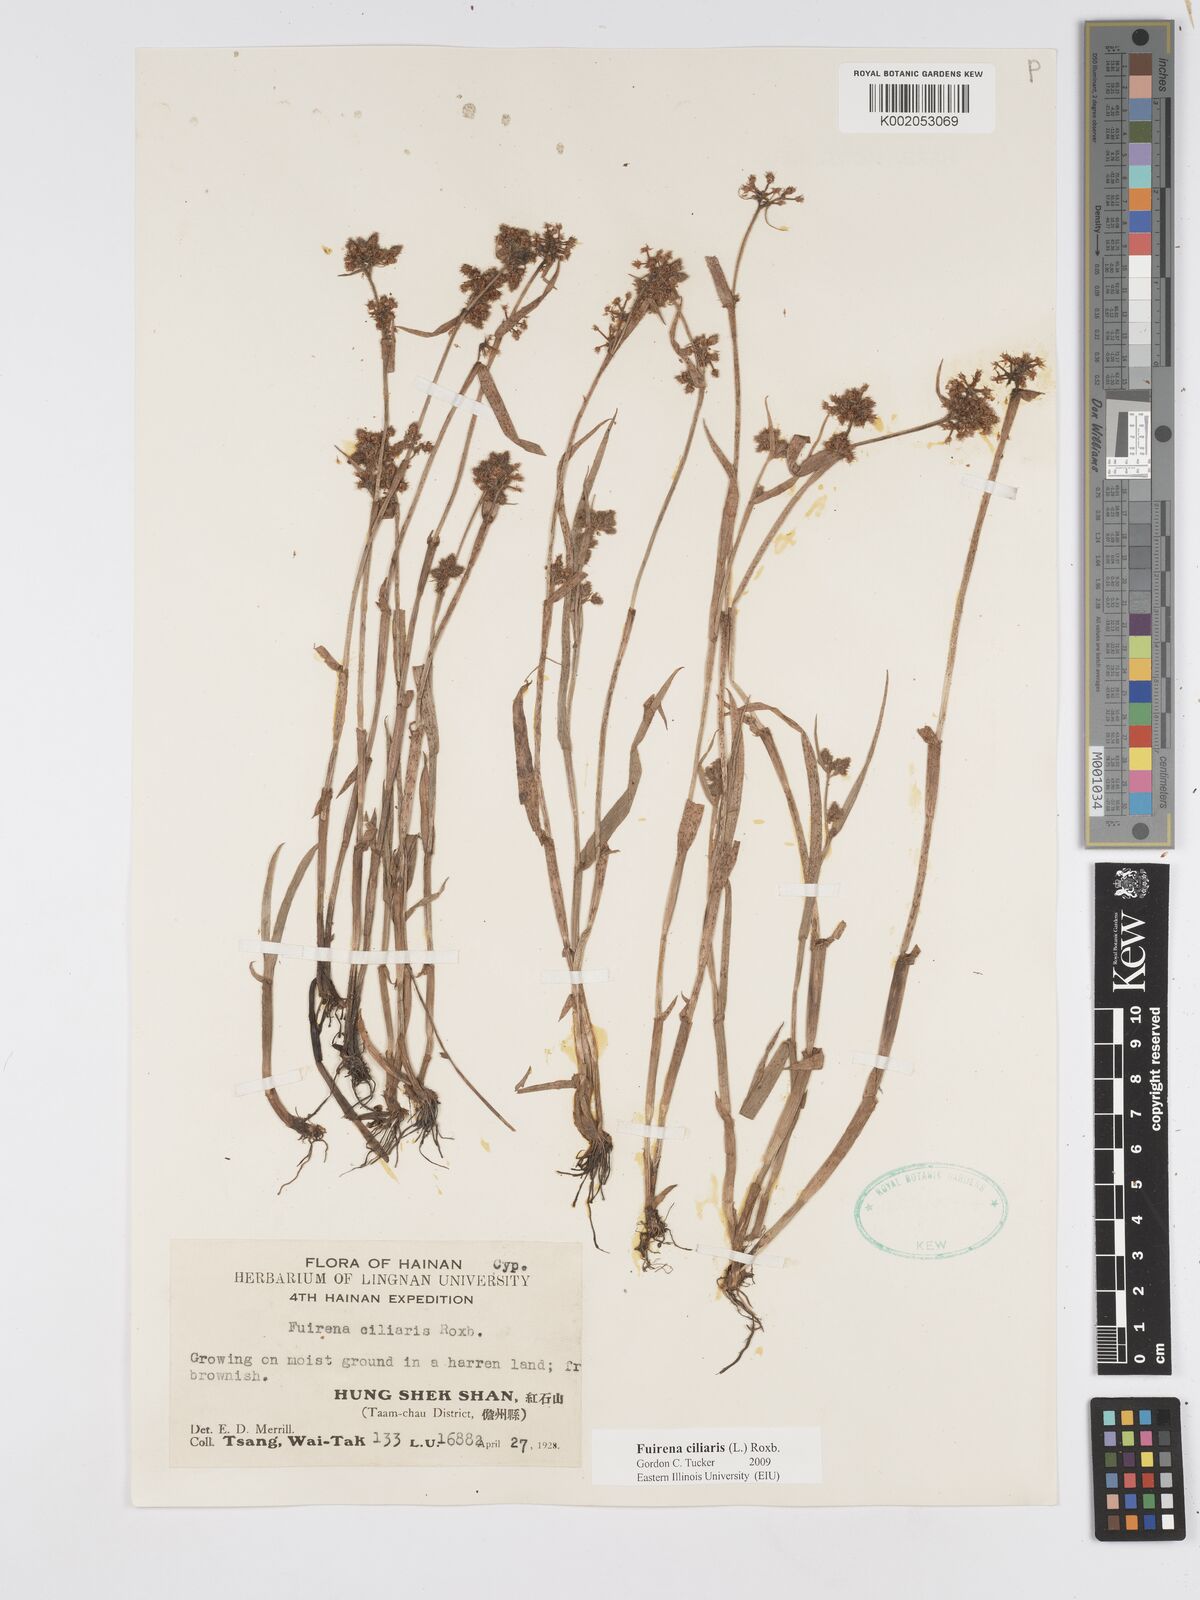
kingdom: Plantae
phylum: Tracheophyta
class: Liliopsida
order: Poales
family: Cyperaceae
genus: Fuirena
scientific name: Fuirena ciliaris
